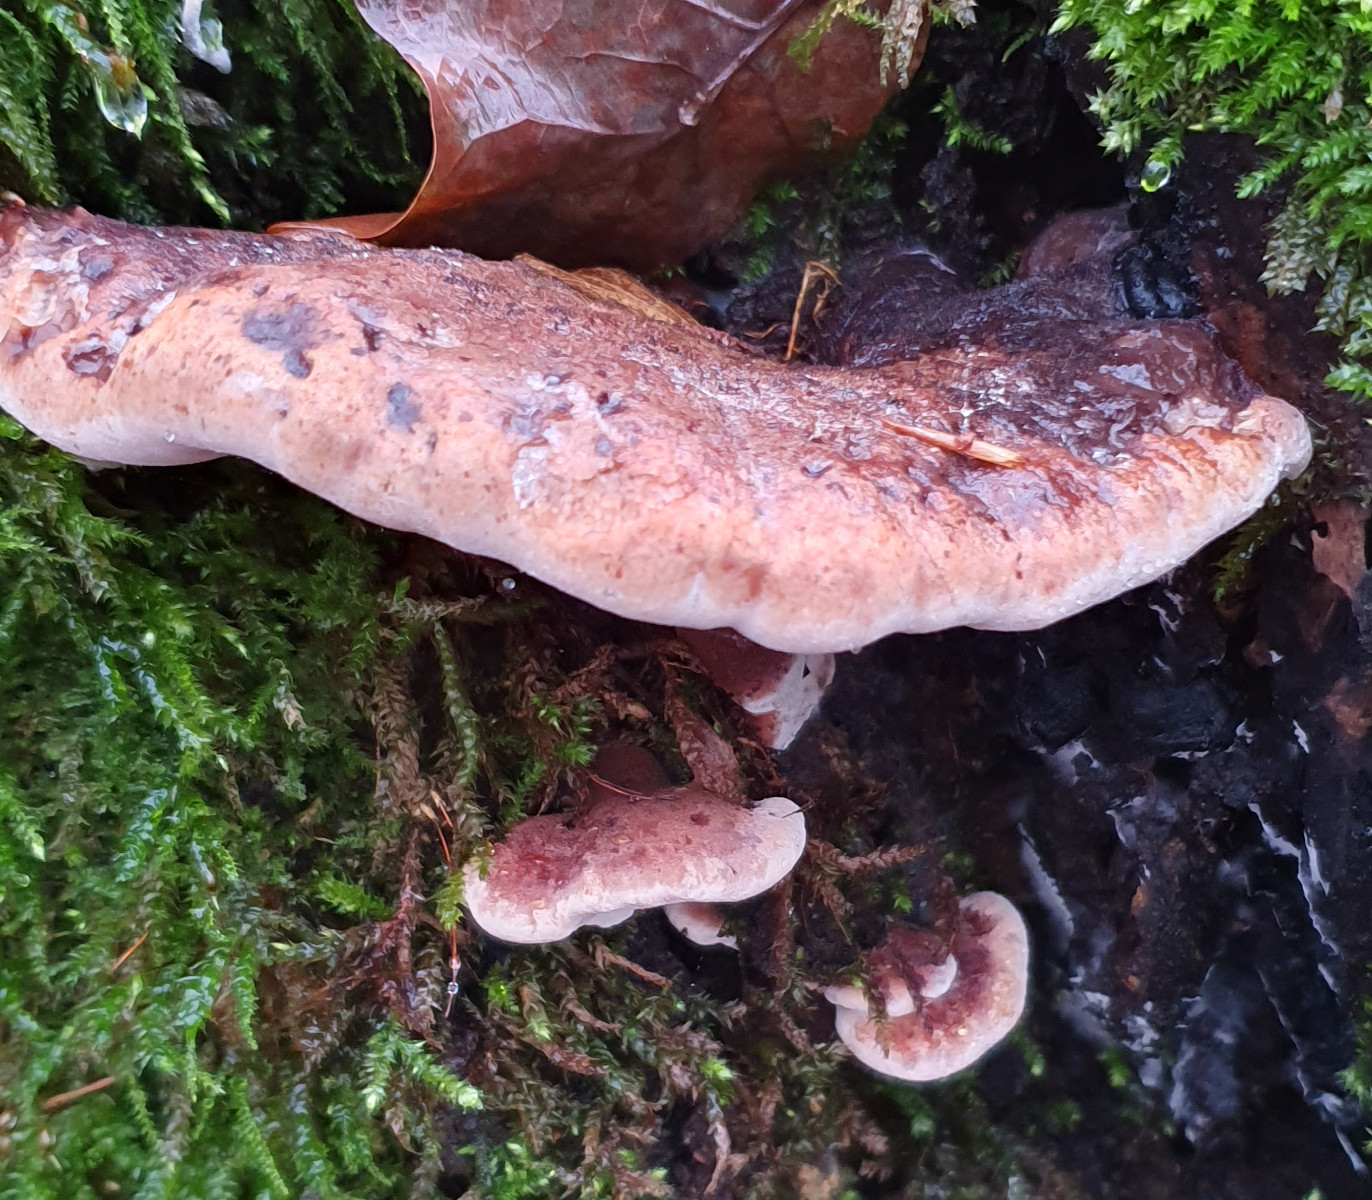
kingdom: Fungi
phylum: Basidiomycota
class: Agaricomycetes
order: Polyporales
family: Ischnodermataceae
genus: Ischnoderma
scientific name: Ischnoderma resinosum
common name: løv-tjæreporesvamp
